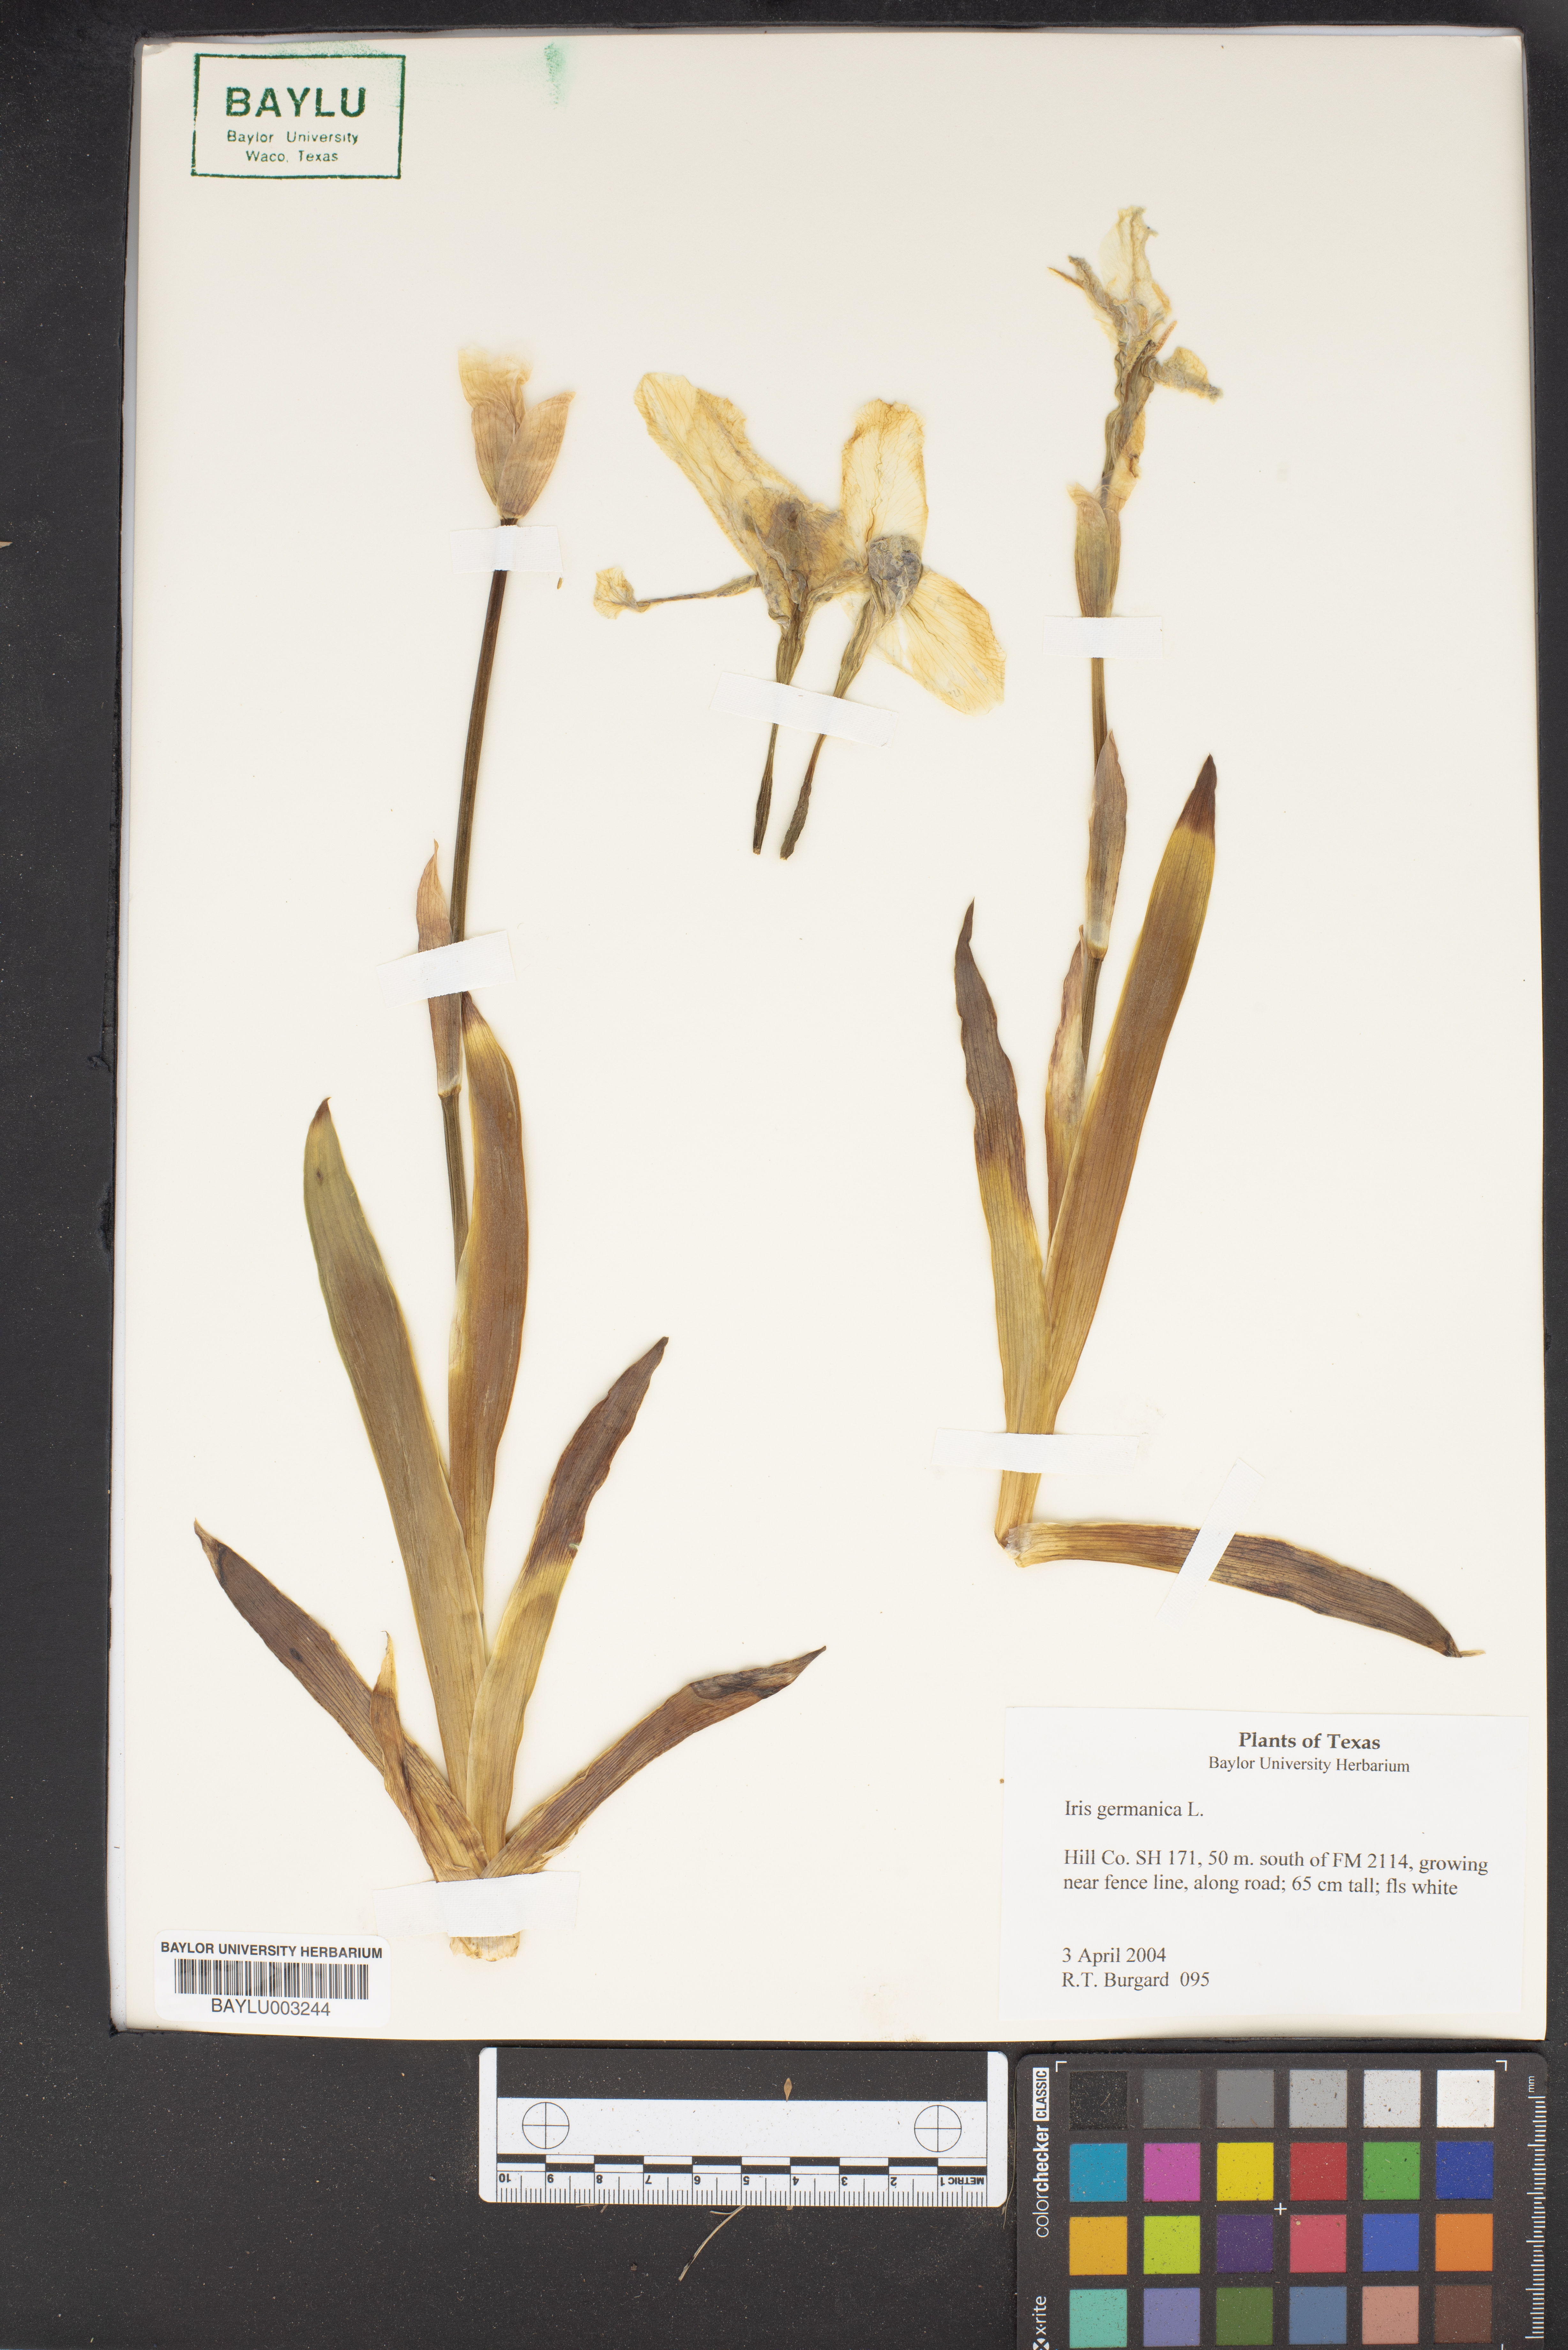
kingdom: Plantae
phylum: Tracheophyta
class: Liliopsida
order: Asparagales
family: Iridaceae
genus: Iris
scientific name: Iris germanica
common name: German iris
